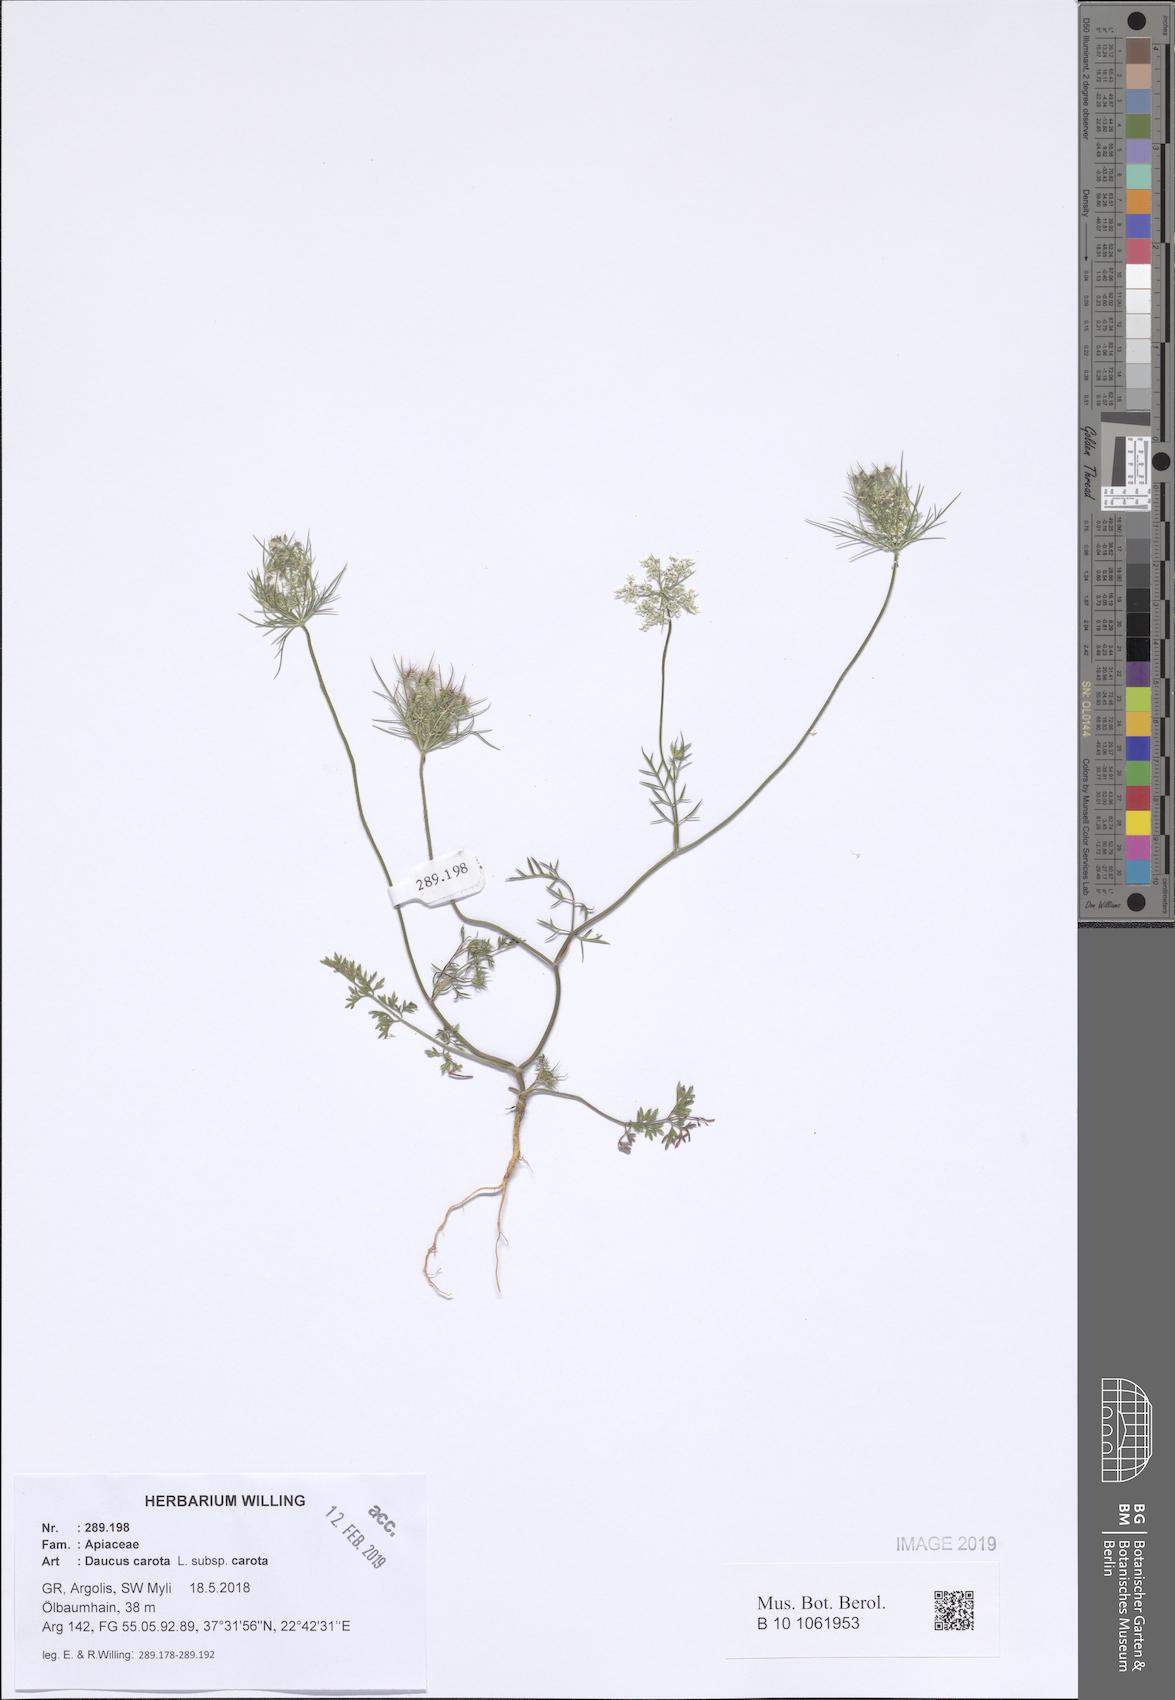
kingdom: Plantae
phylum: Tracheophyta
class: Magnoliopsida
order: Apiales
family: Apiaceae
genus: Daucus
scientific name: Daucus carota
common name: Wild carrot
